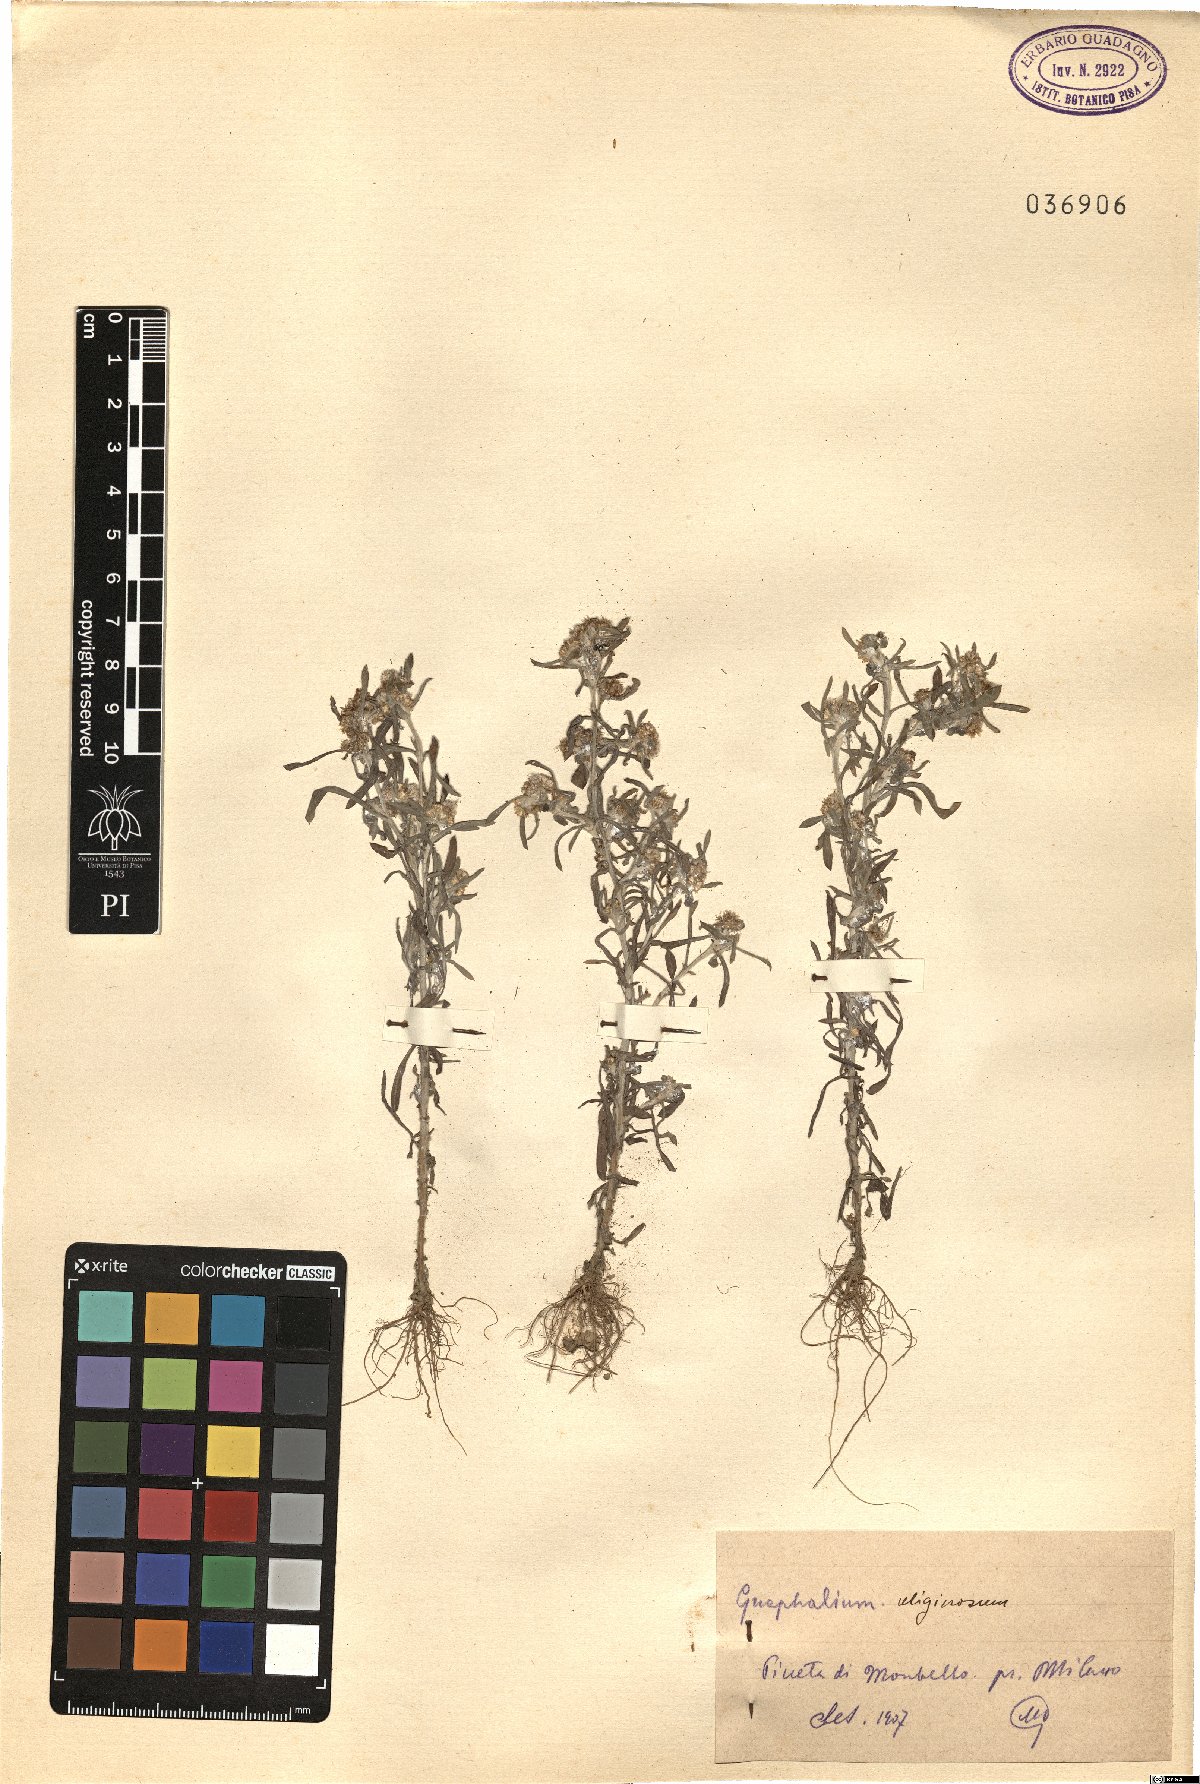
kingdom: Plantae
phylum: Tracheophyta
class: Magnoliopsida
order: Asterales
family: Asteraceae
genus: Gnaphalium
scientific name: Gnaphalium uliginosum
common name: Marsh cudweed
